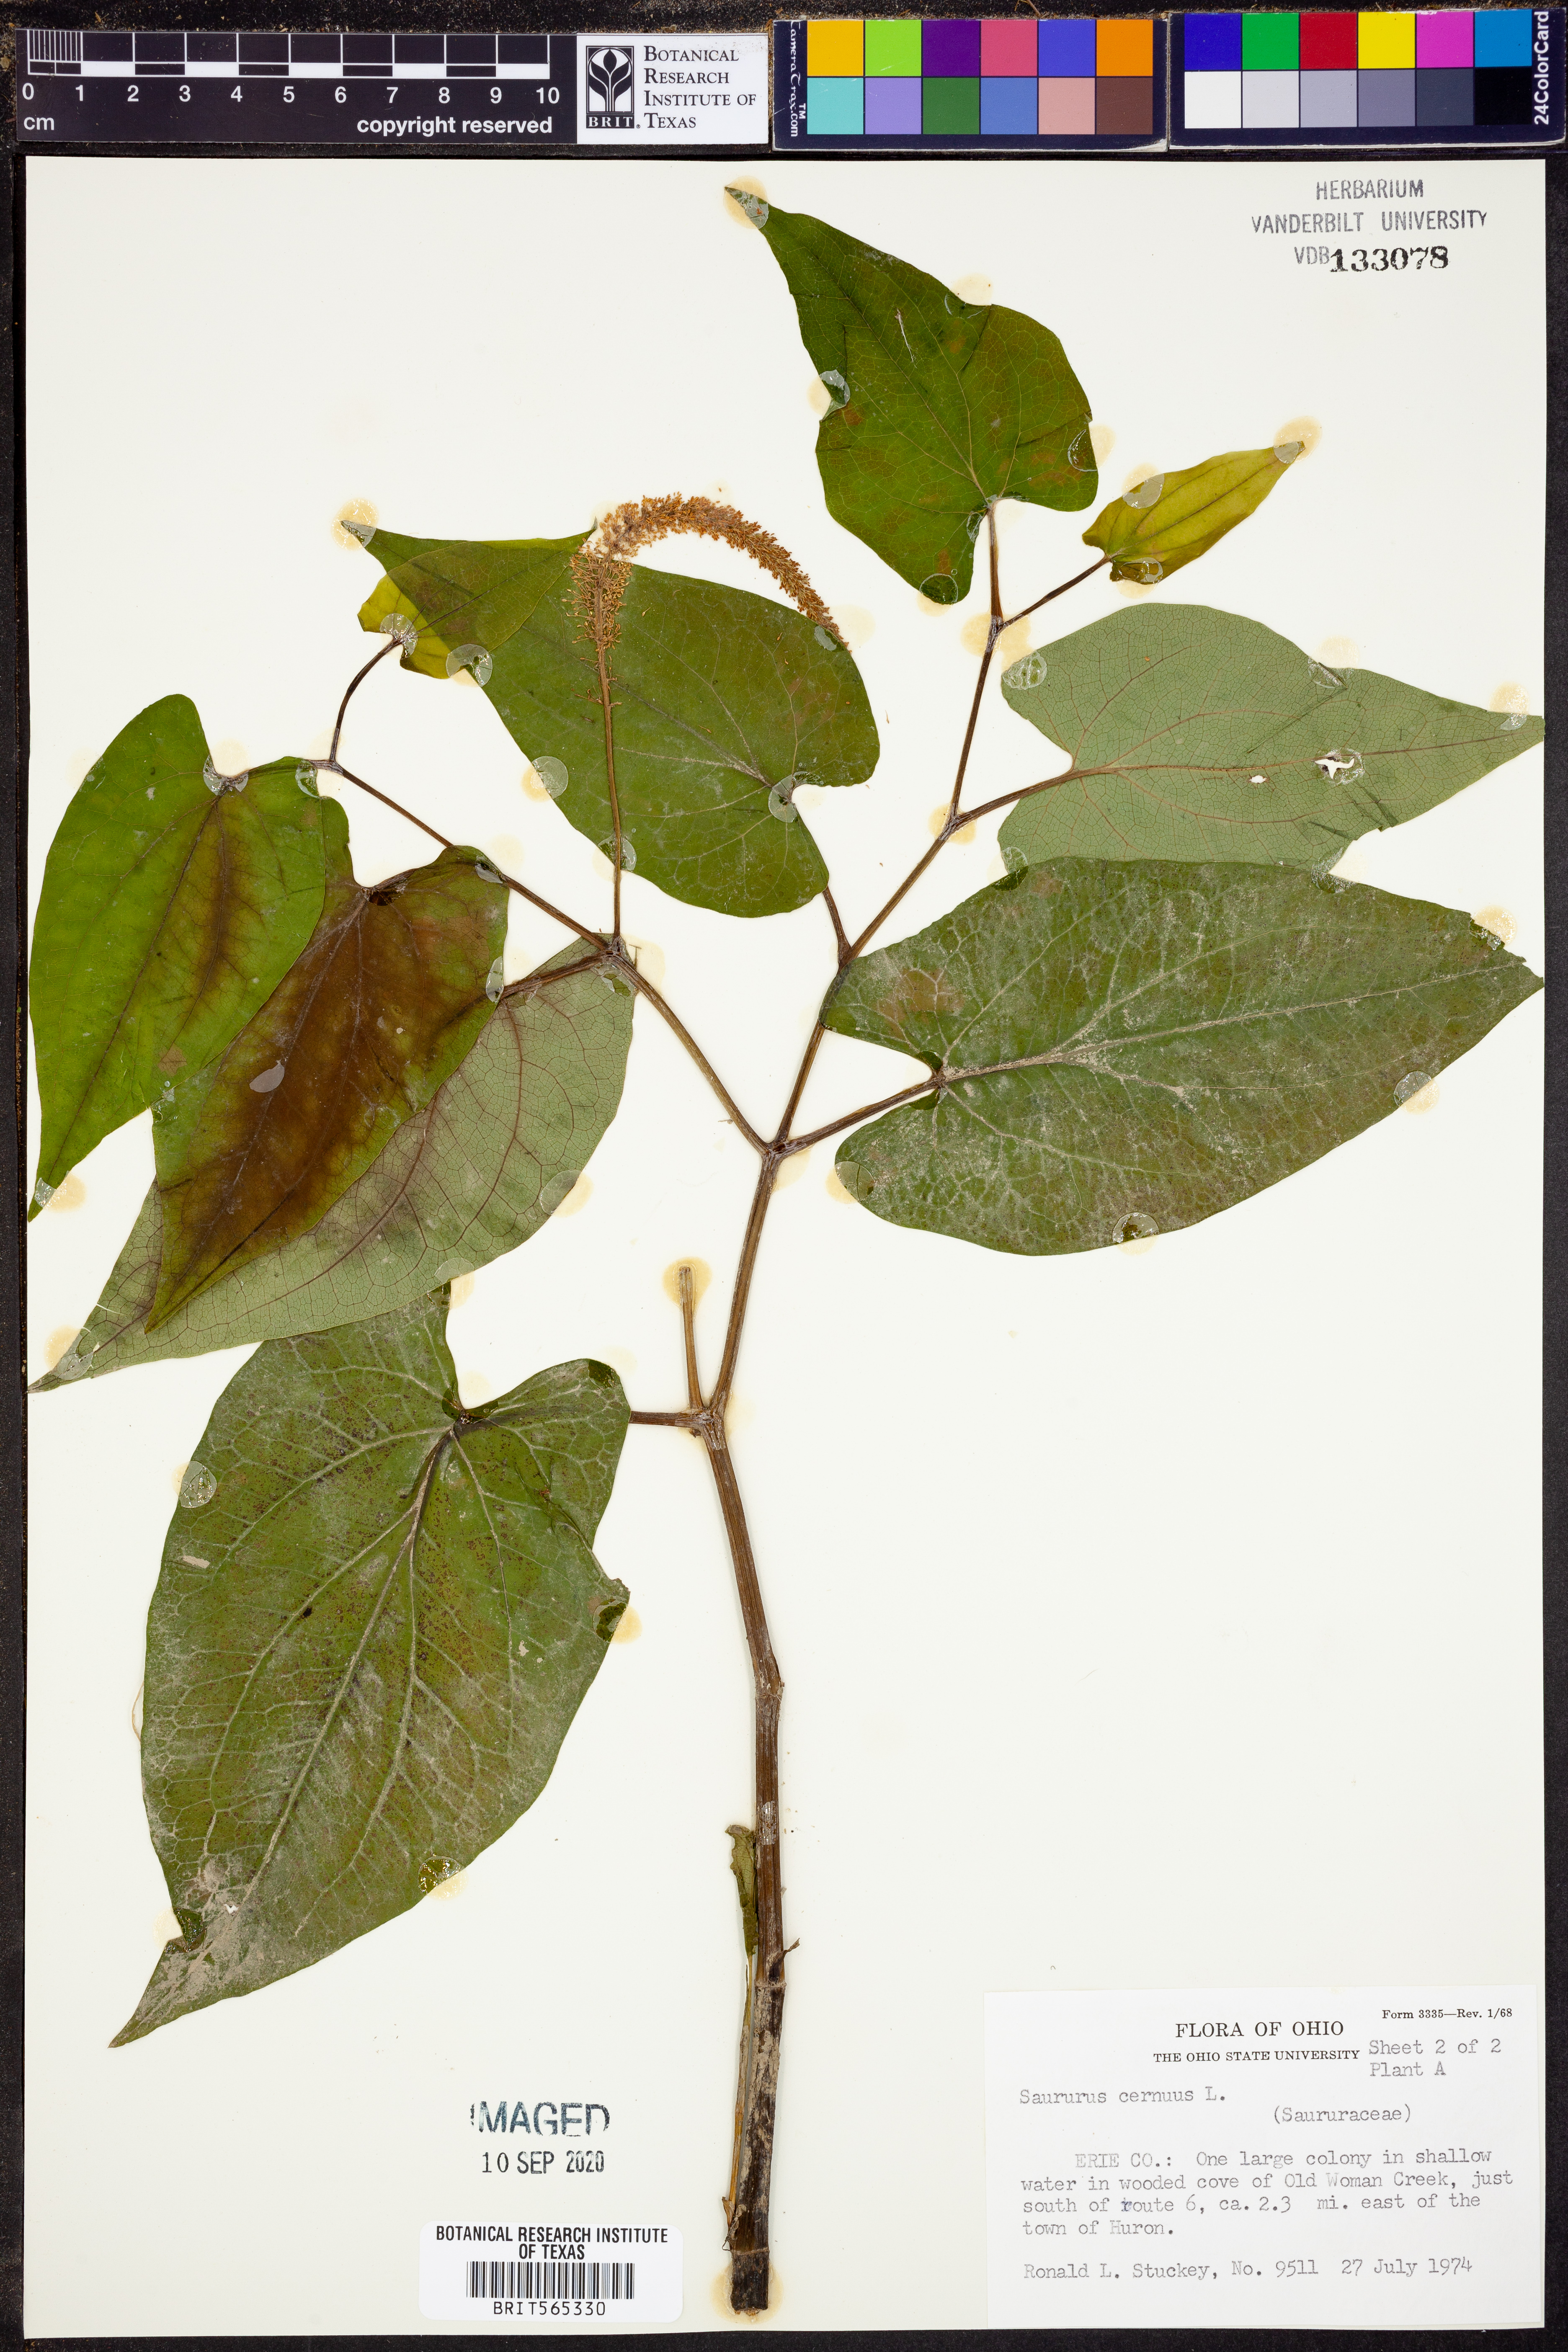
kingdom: Plantae
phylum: Tracheophyta
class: Magnoliopsida
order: Piperales
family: Saururaceae
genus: Saururus
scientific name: Saururus cernuus
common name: Lizard's-tail
